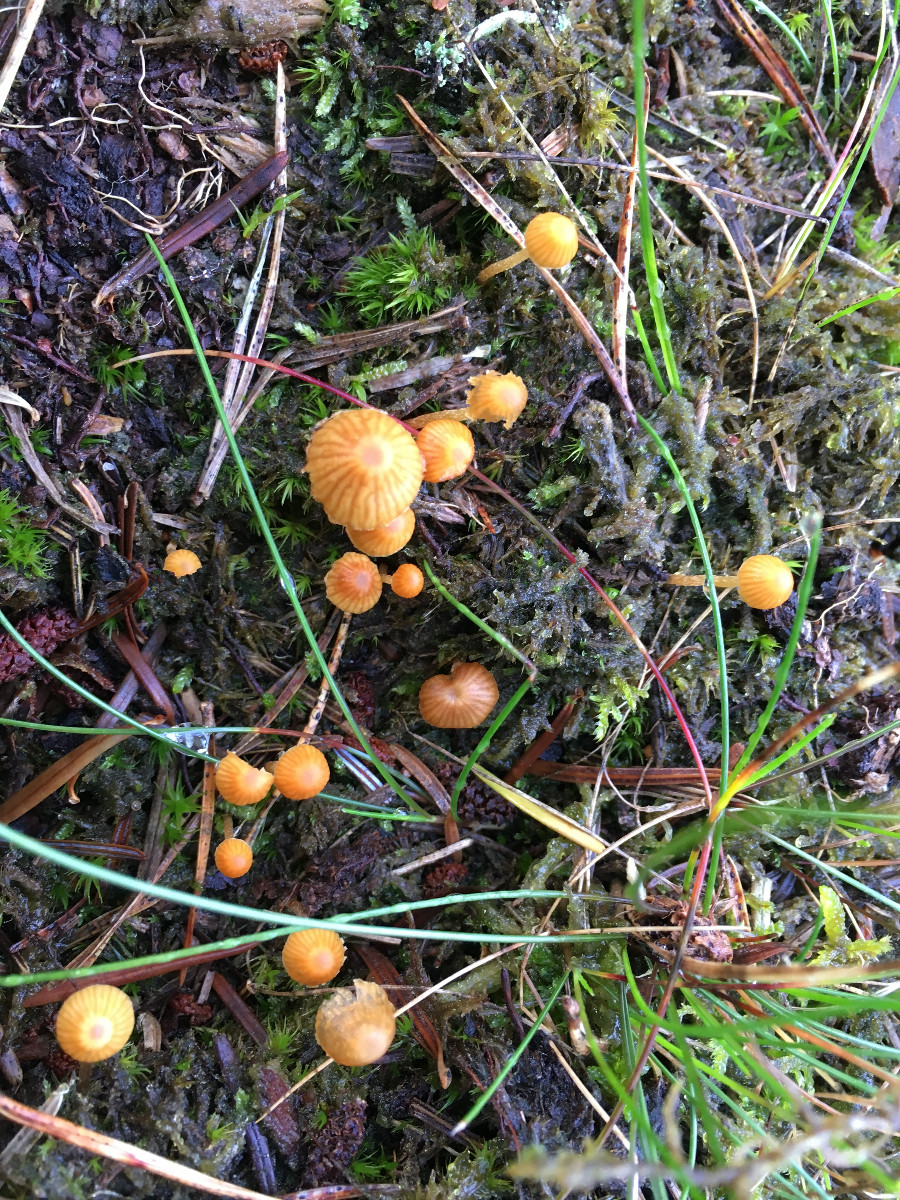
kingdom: Fungi
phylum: Basidiomycota
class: Agaricomycetes
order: Agaricales
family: Hymenogastraceae
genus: Galerina
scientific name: Galerina
